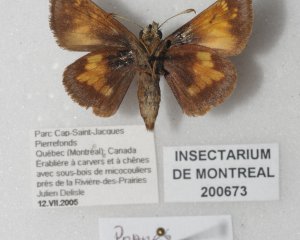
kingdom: Animalia
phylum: Arthropoda
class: Insecta
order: Lepidoptera
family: Hesperiidae
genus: Lon
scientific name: Lon hobomok
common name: Hobomok Skipper
